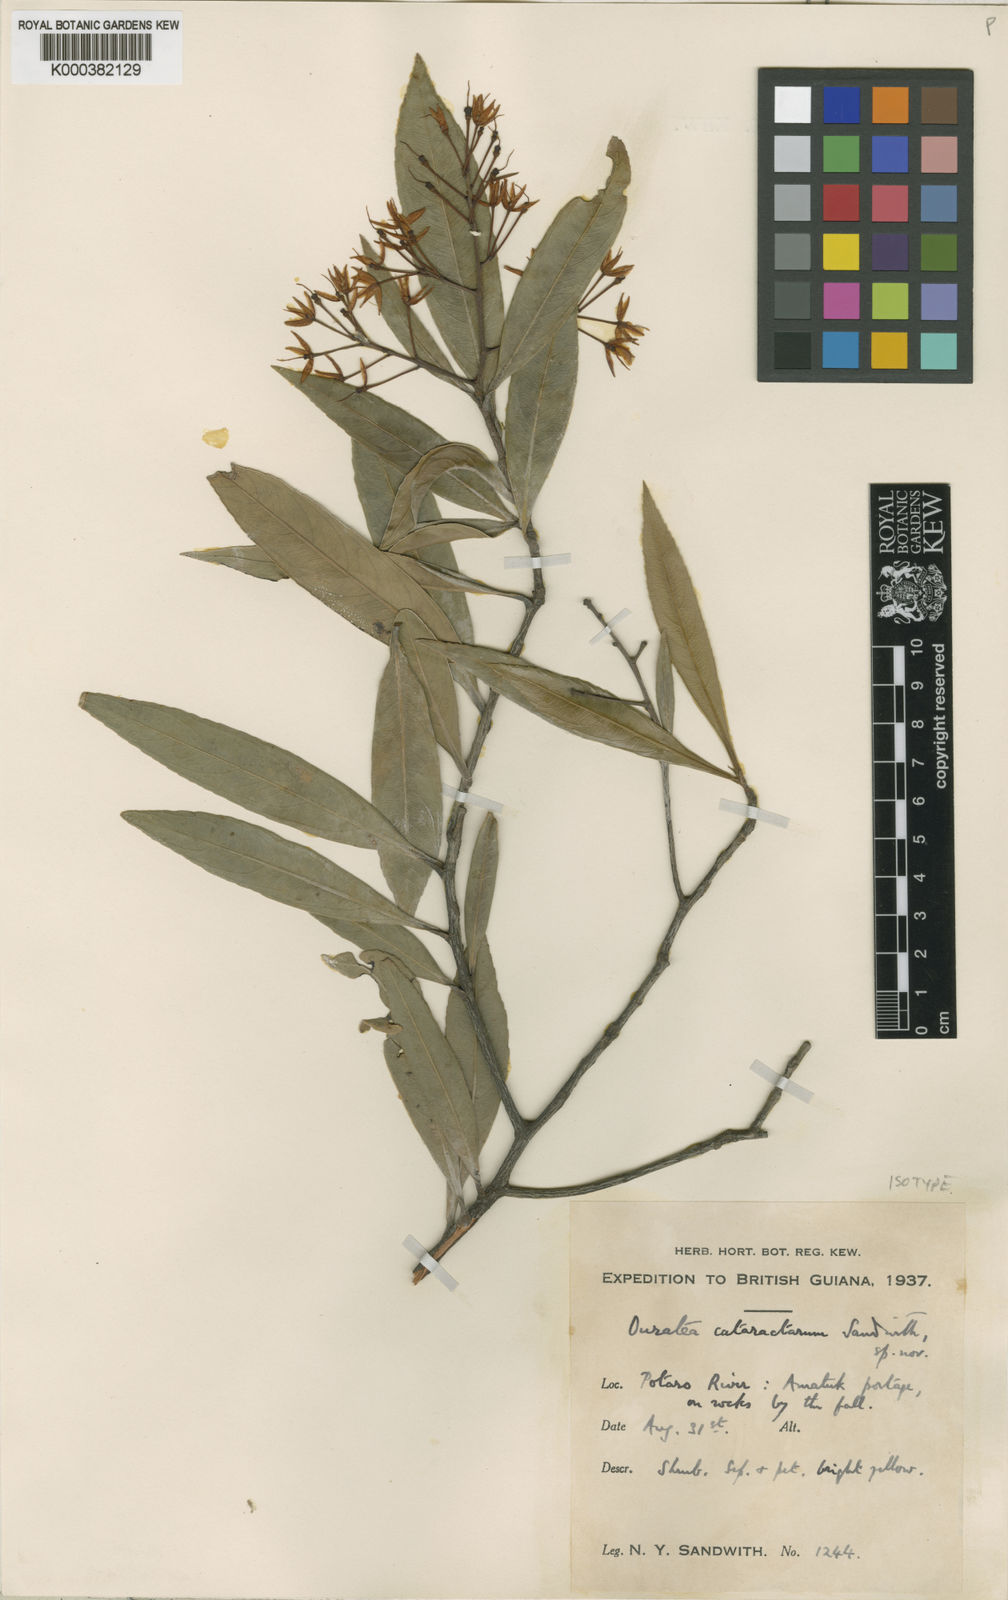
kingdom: Plantae
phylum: Tracheophyta
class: Magnoliopsida
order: Malpighiales
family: Ochnaceae
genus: Ouratea
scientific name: Ouratea cataractarum
